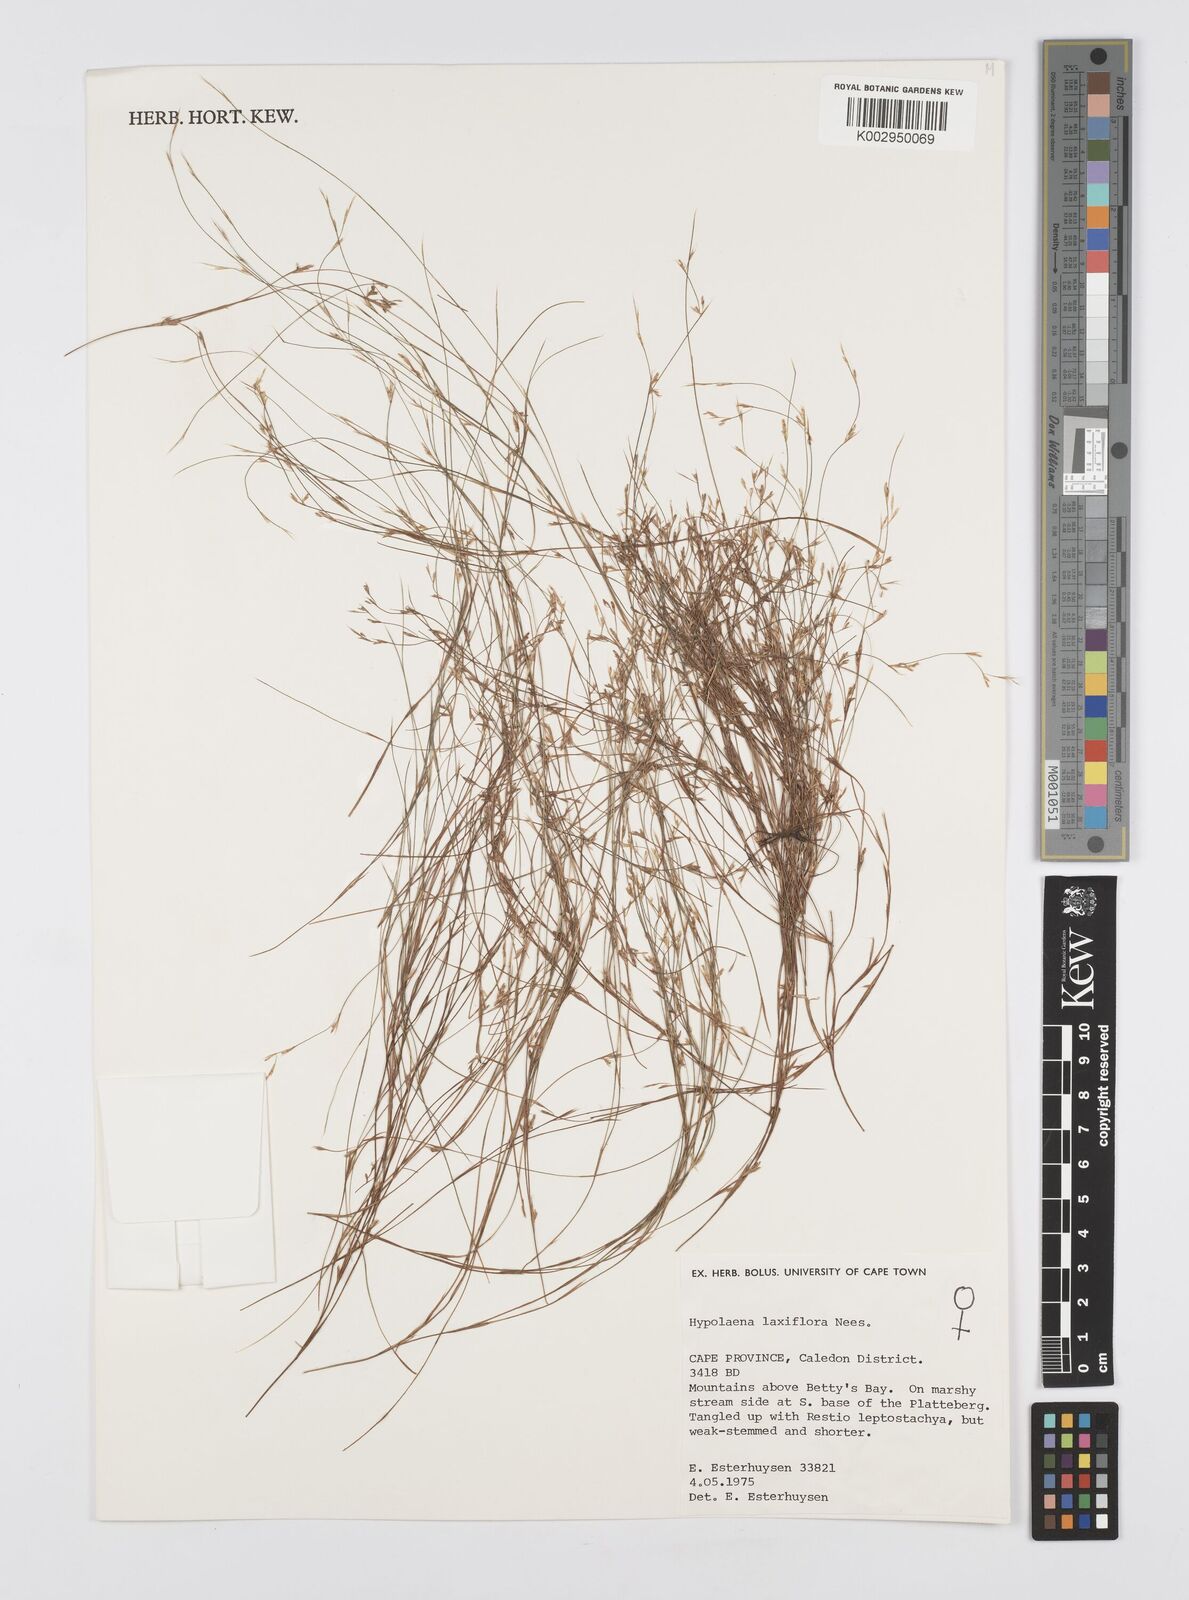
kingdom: Plantae
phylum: Tracheophyta
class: Liliopsida
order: Poales
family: Restionaceae
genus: Anthochortus
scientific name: Anthochortus laxiflorus
